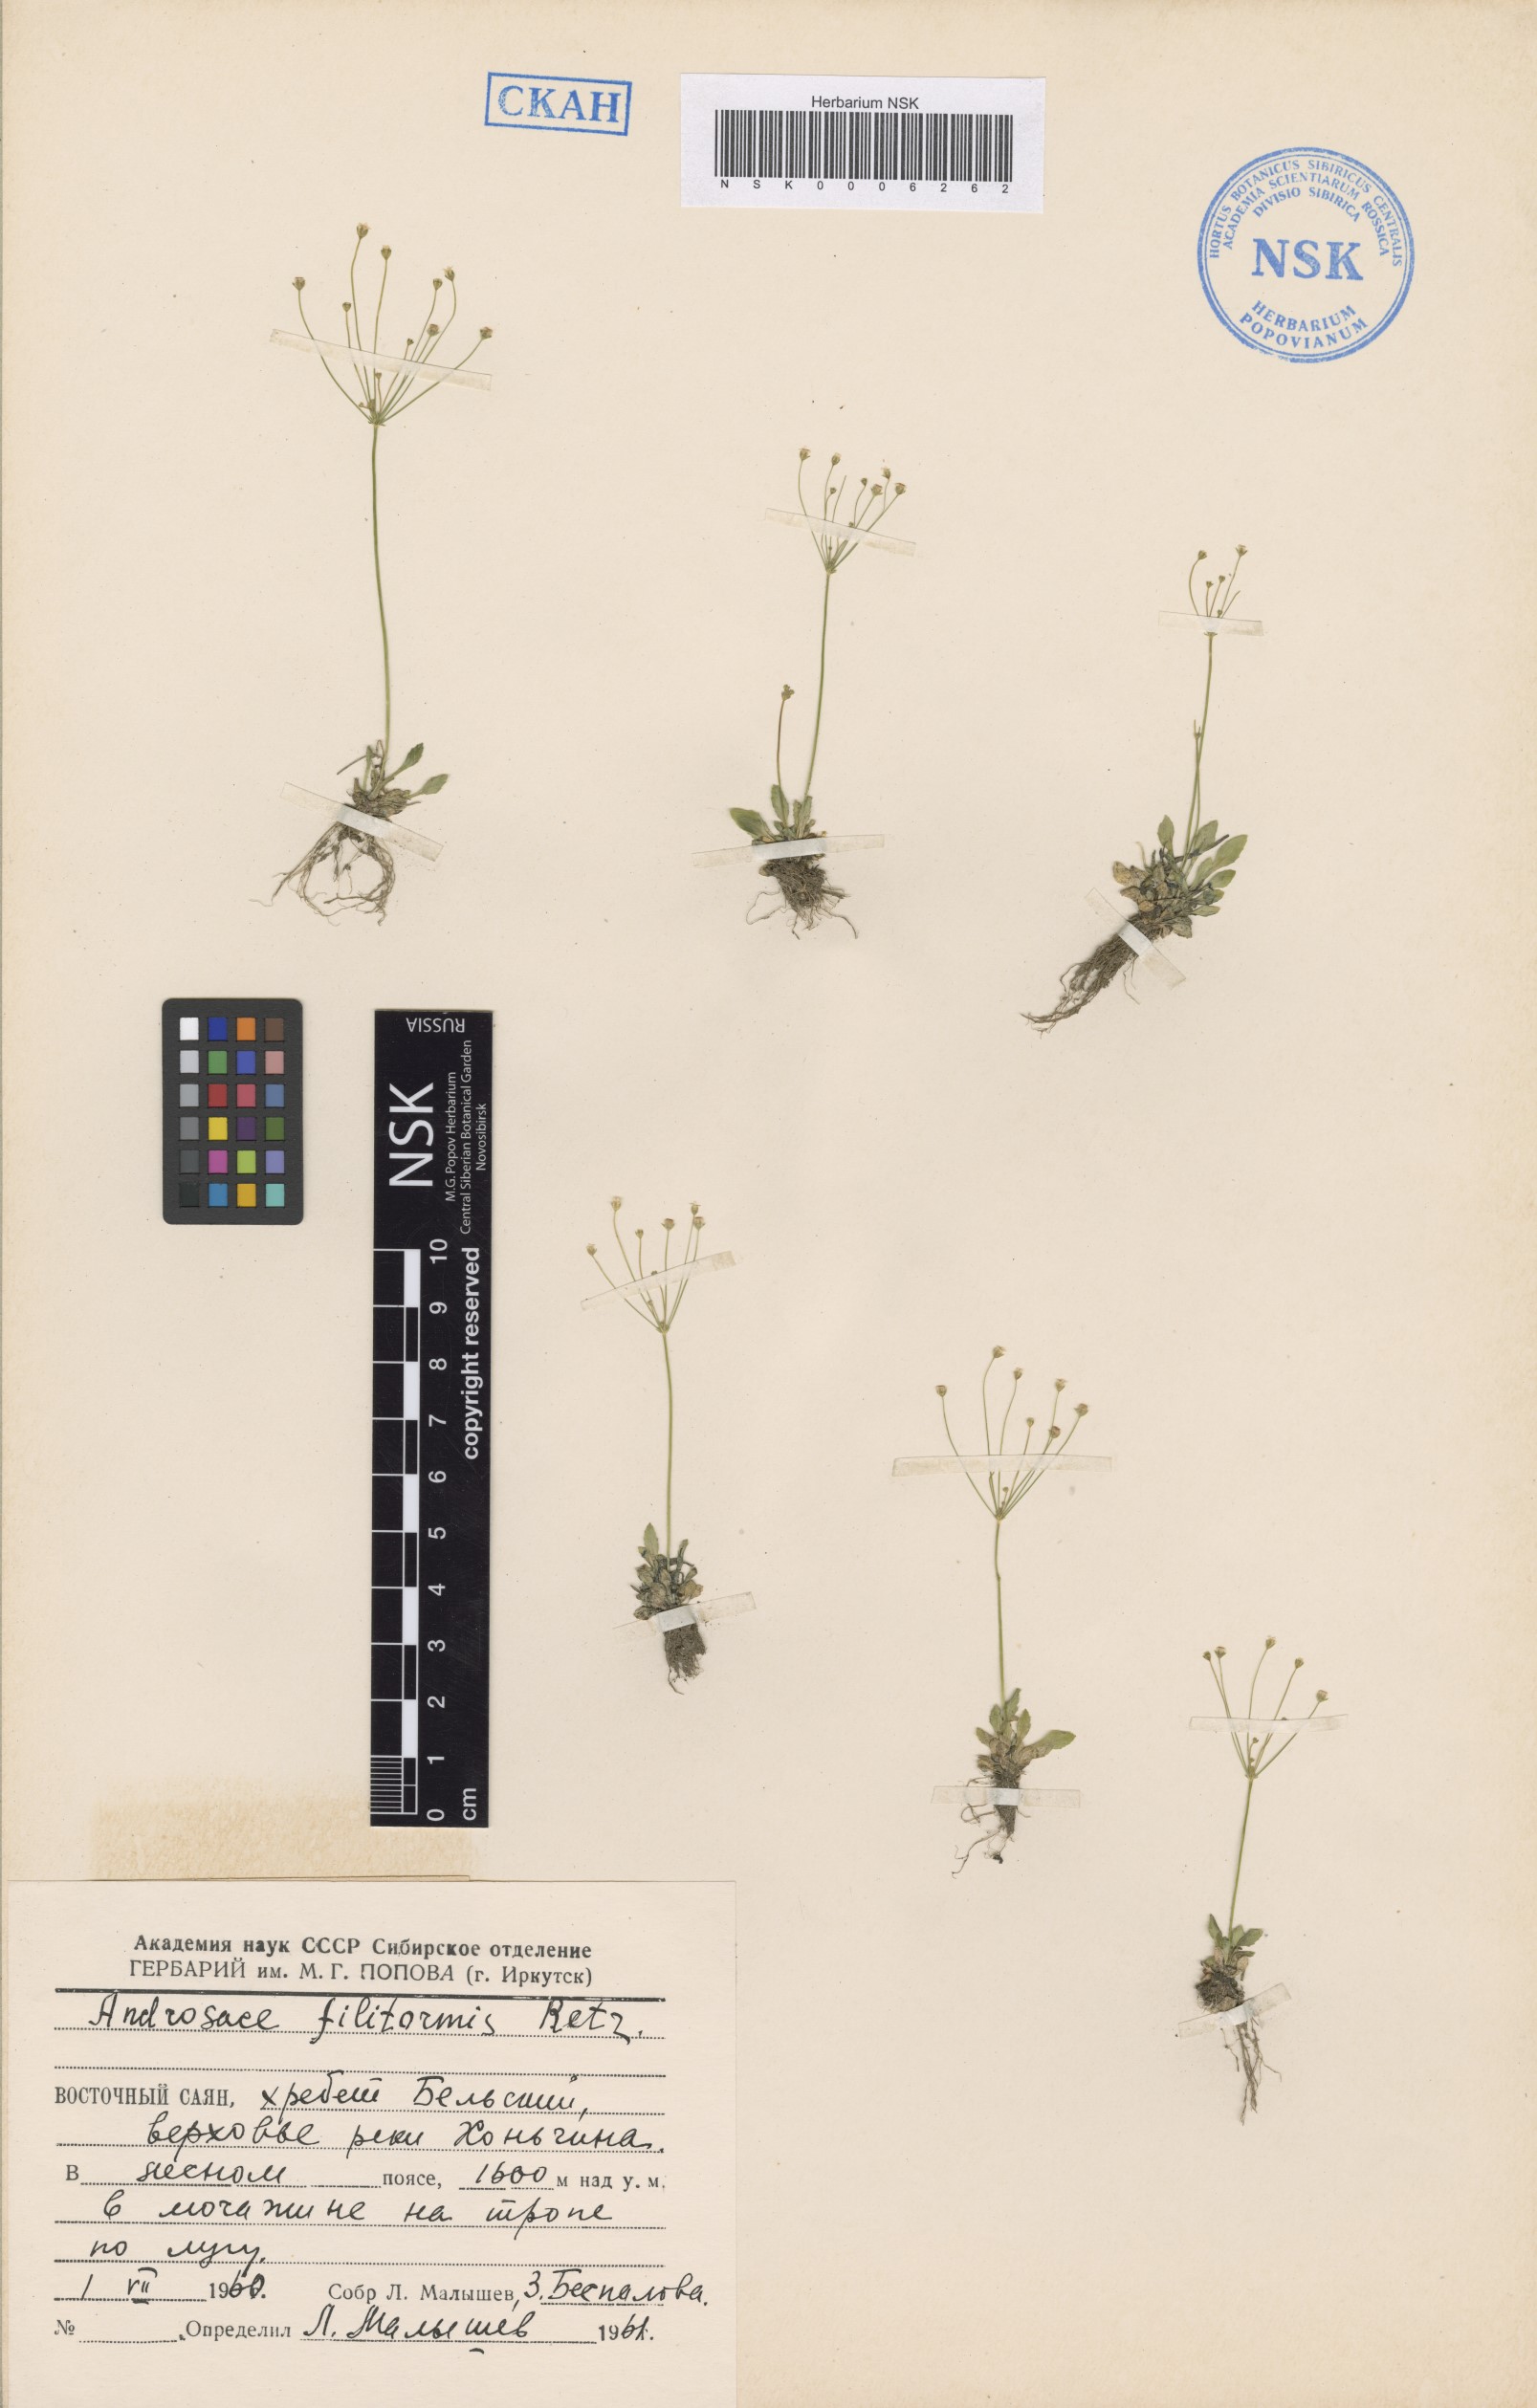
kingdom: Plantae
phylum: Tracheophyta
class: Magnoliopsida
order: Ericales
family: Primulaceae
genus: Androsace
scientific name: Androsace filiformis
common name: Filiform rock jasmine
